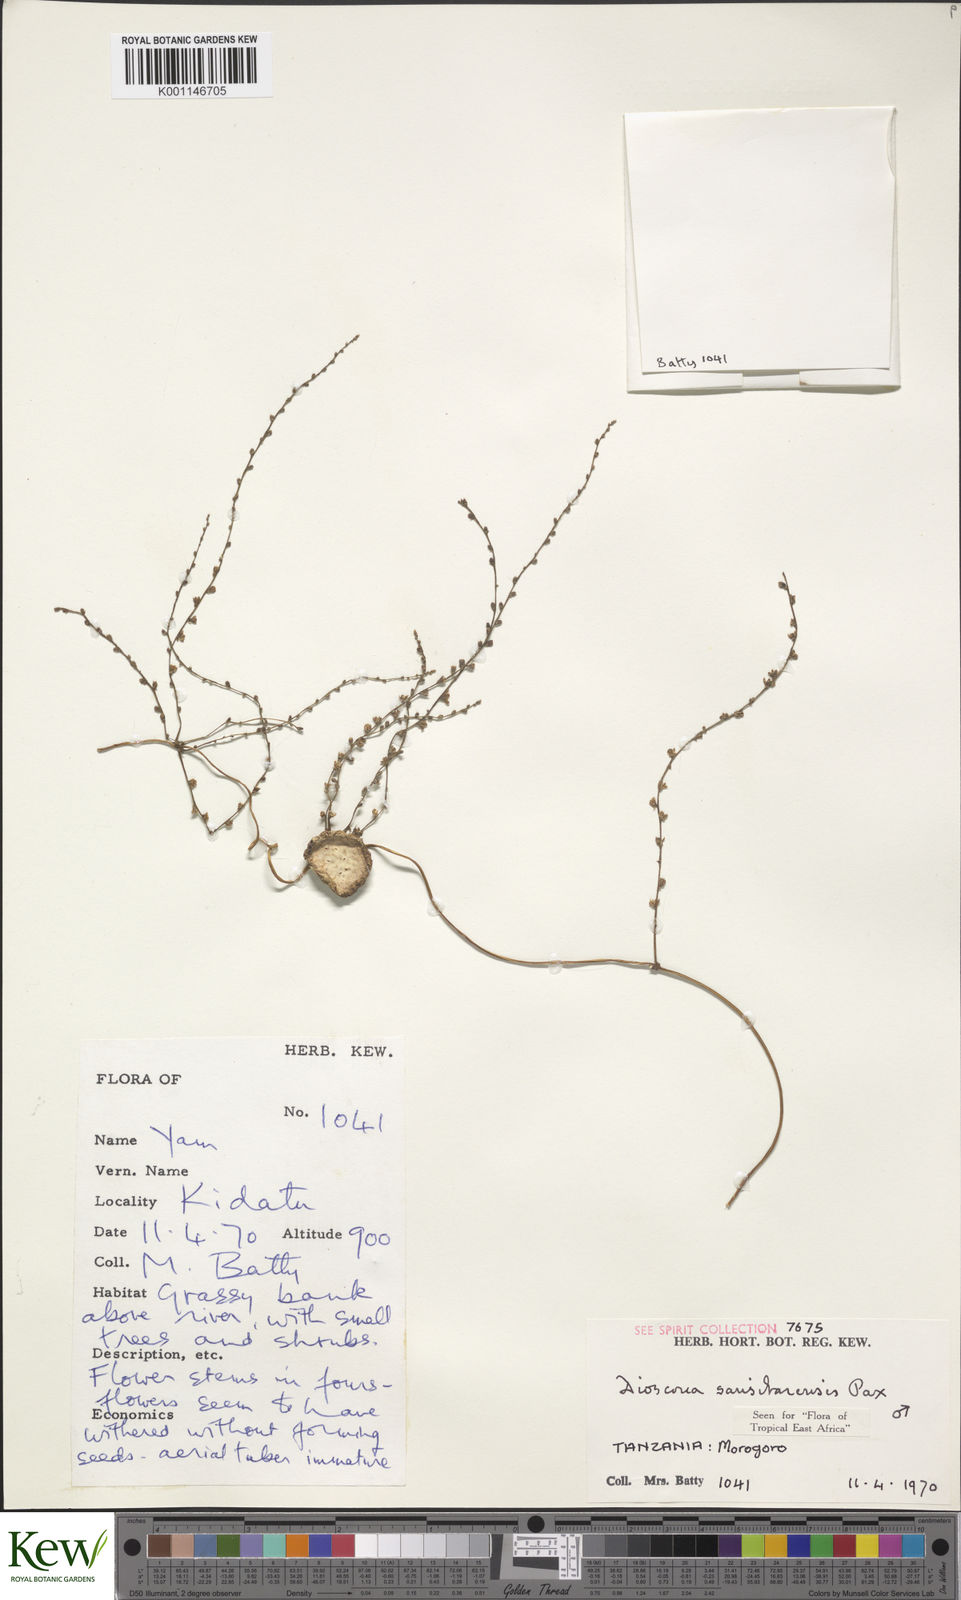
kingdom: Plantae
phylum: Tracheophyta
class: Liliopsida
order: Dioscoreales
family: Dioscoreaceae
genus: Dioscorea
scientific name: Dioscorea sansibarensis
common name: Zanzibar yam
